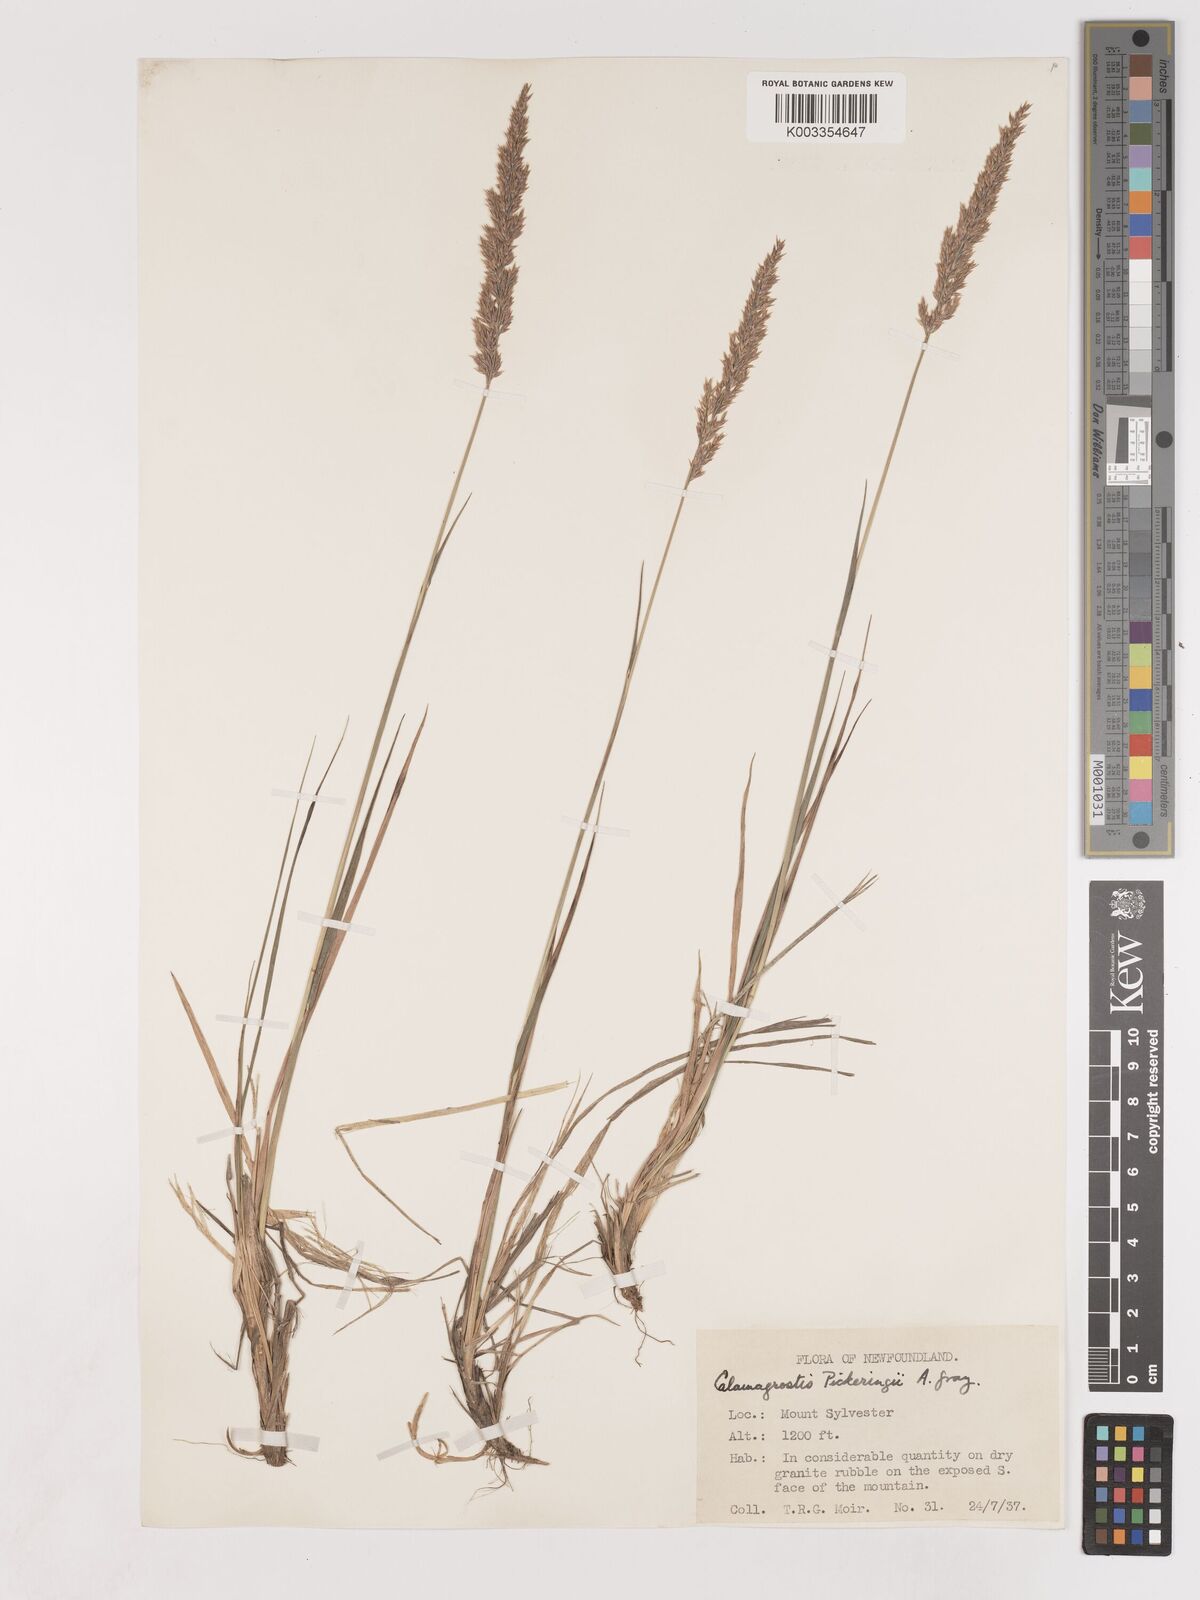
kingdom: Plantae
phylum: Tracheophyta
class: Liliopsida
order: Poales
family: Poaceae
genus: Calamagrostis
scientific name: Calamagrostis pickeringii
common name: Pickering's reed bentgrass
